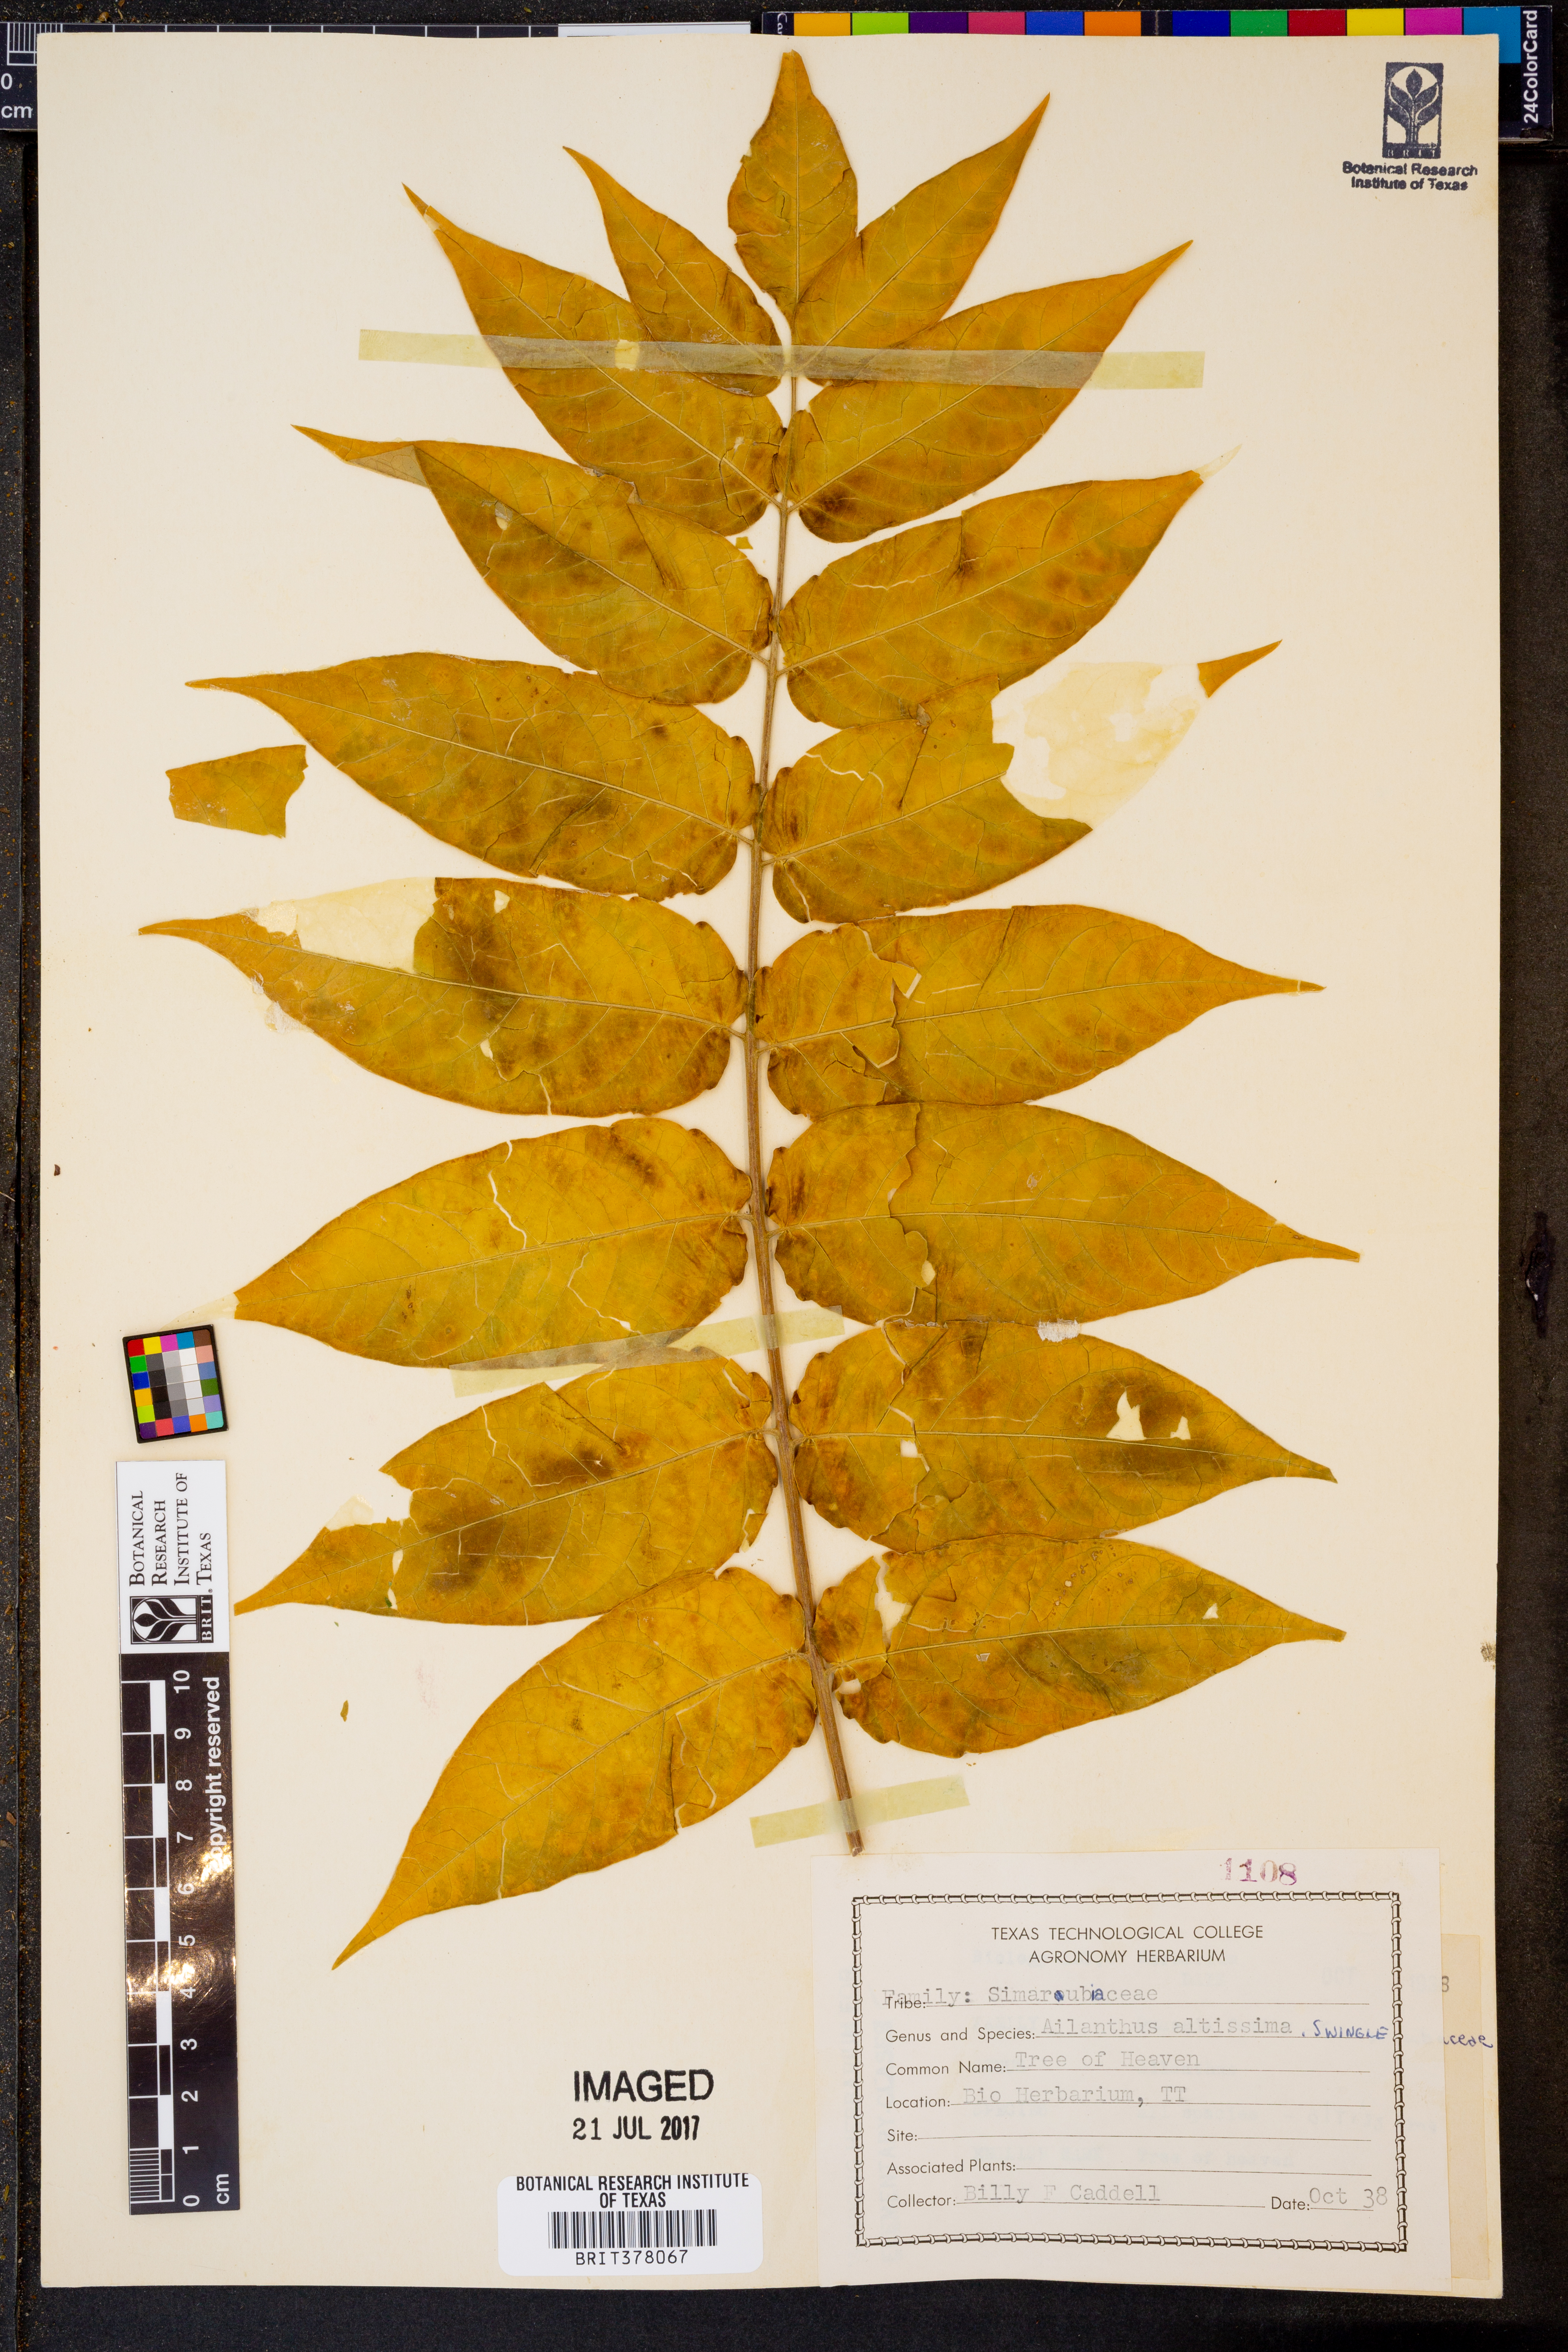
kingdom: Plantae
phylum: Tracheophyta
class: Magnoliopsida
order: Sapindales
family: Simaroubaceae
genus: Ailanthus
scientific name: Ailanthus altissima
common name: Tree-of-heaven
